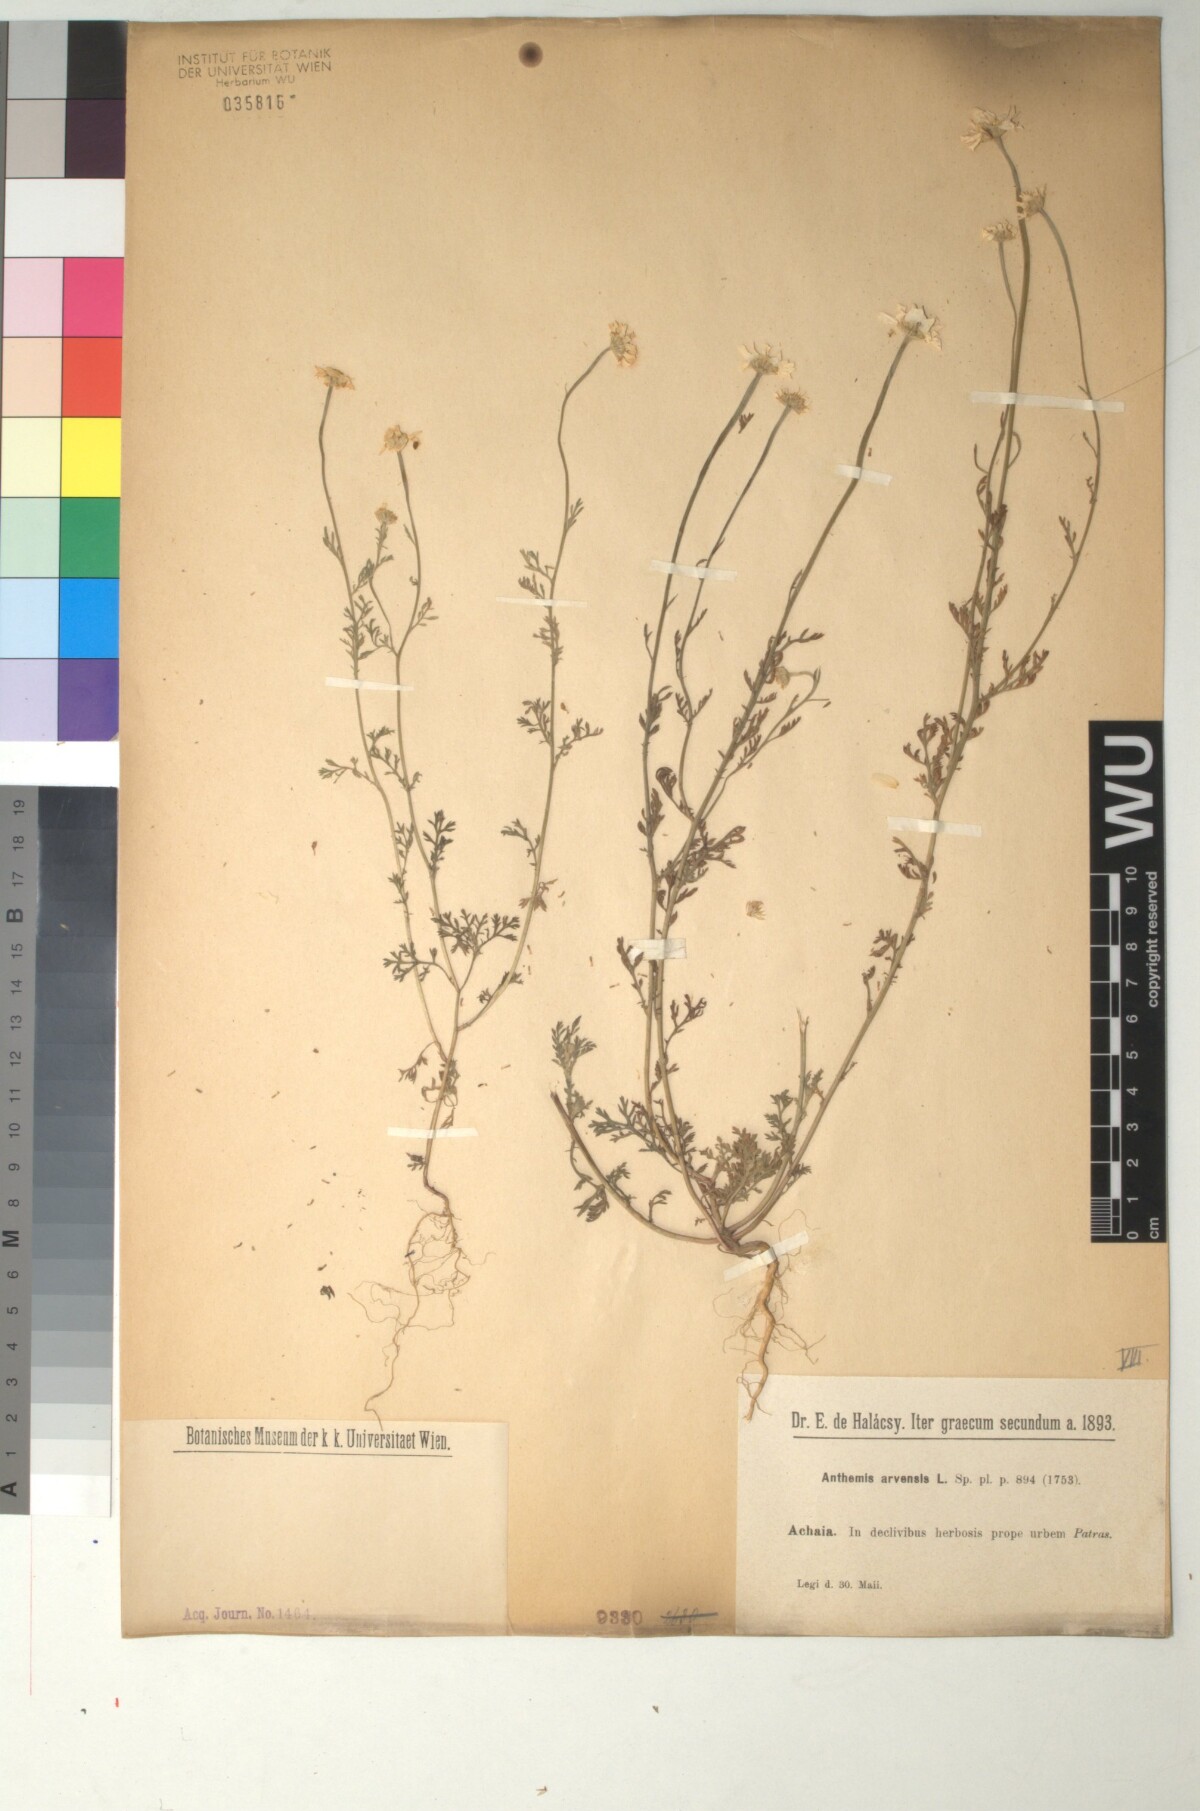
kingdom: Plantae
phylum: Tracheophyta
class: Magnoliopsida
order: Asterales
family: Asteraceae
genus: Anthemis
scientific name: Anthemis arvensis
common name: Corn chamomile
